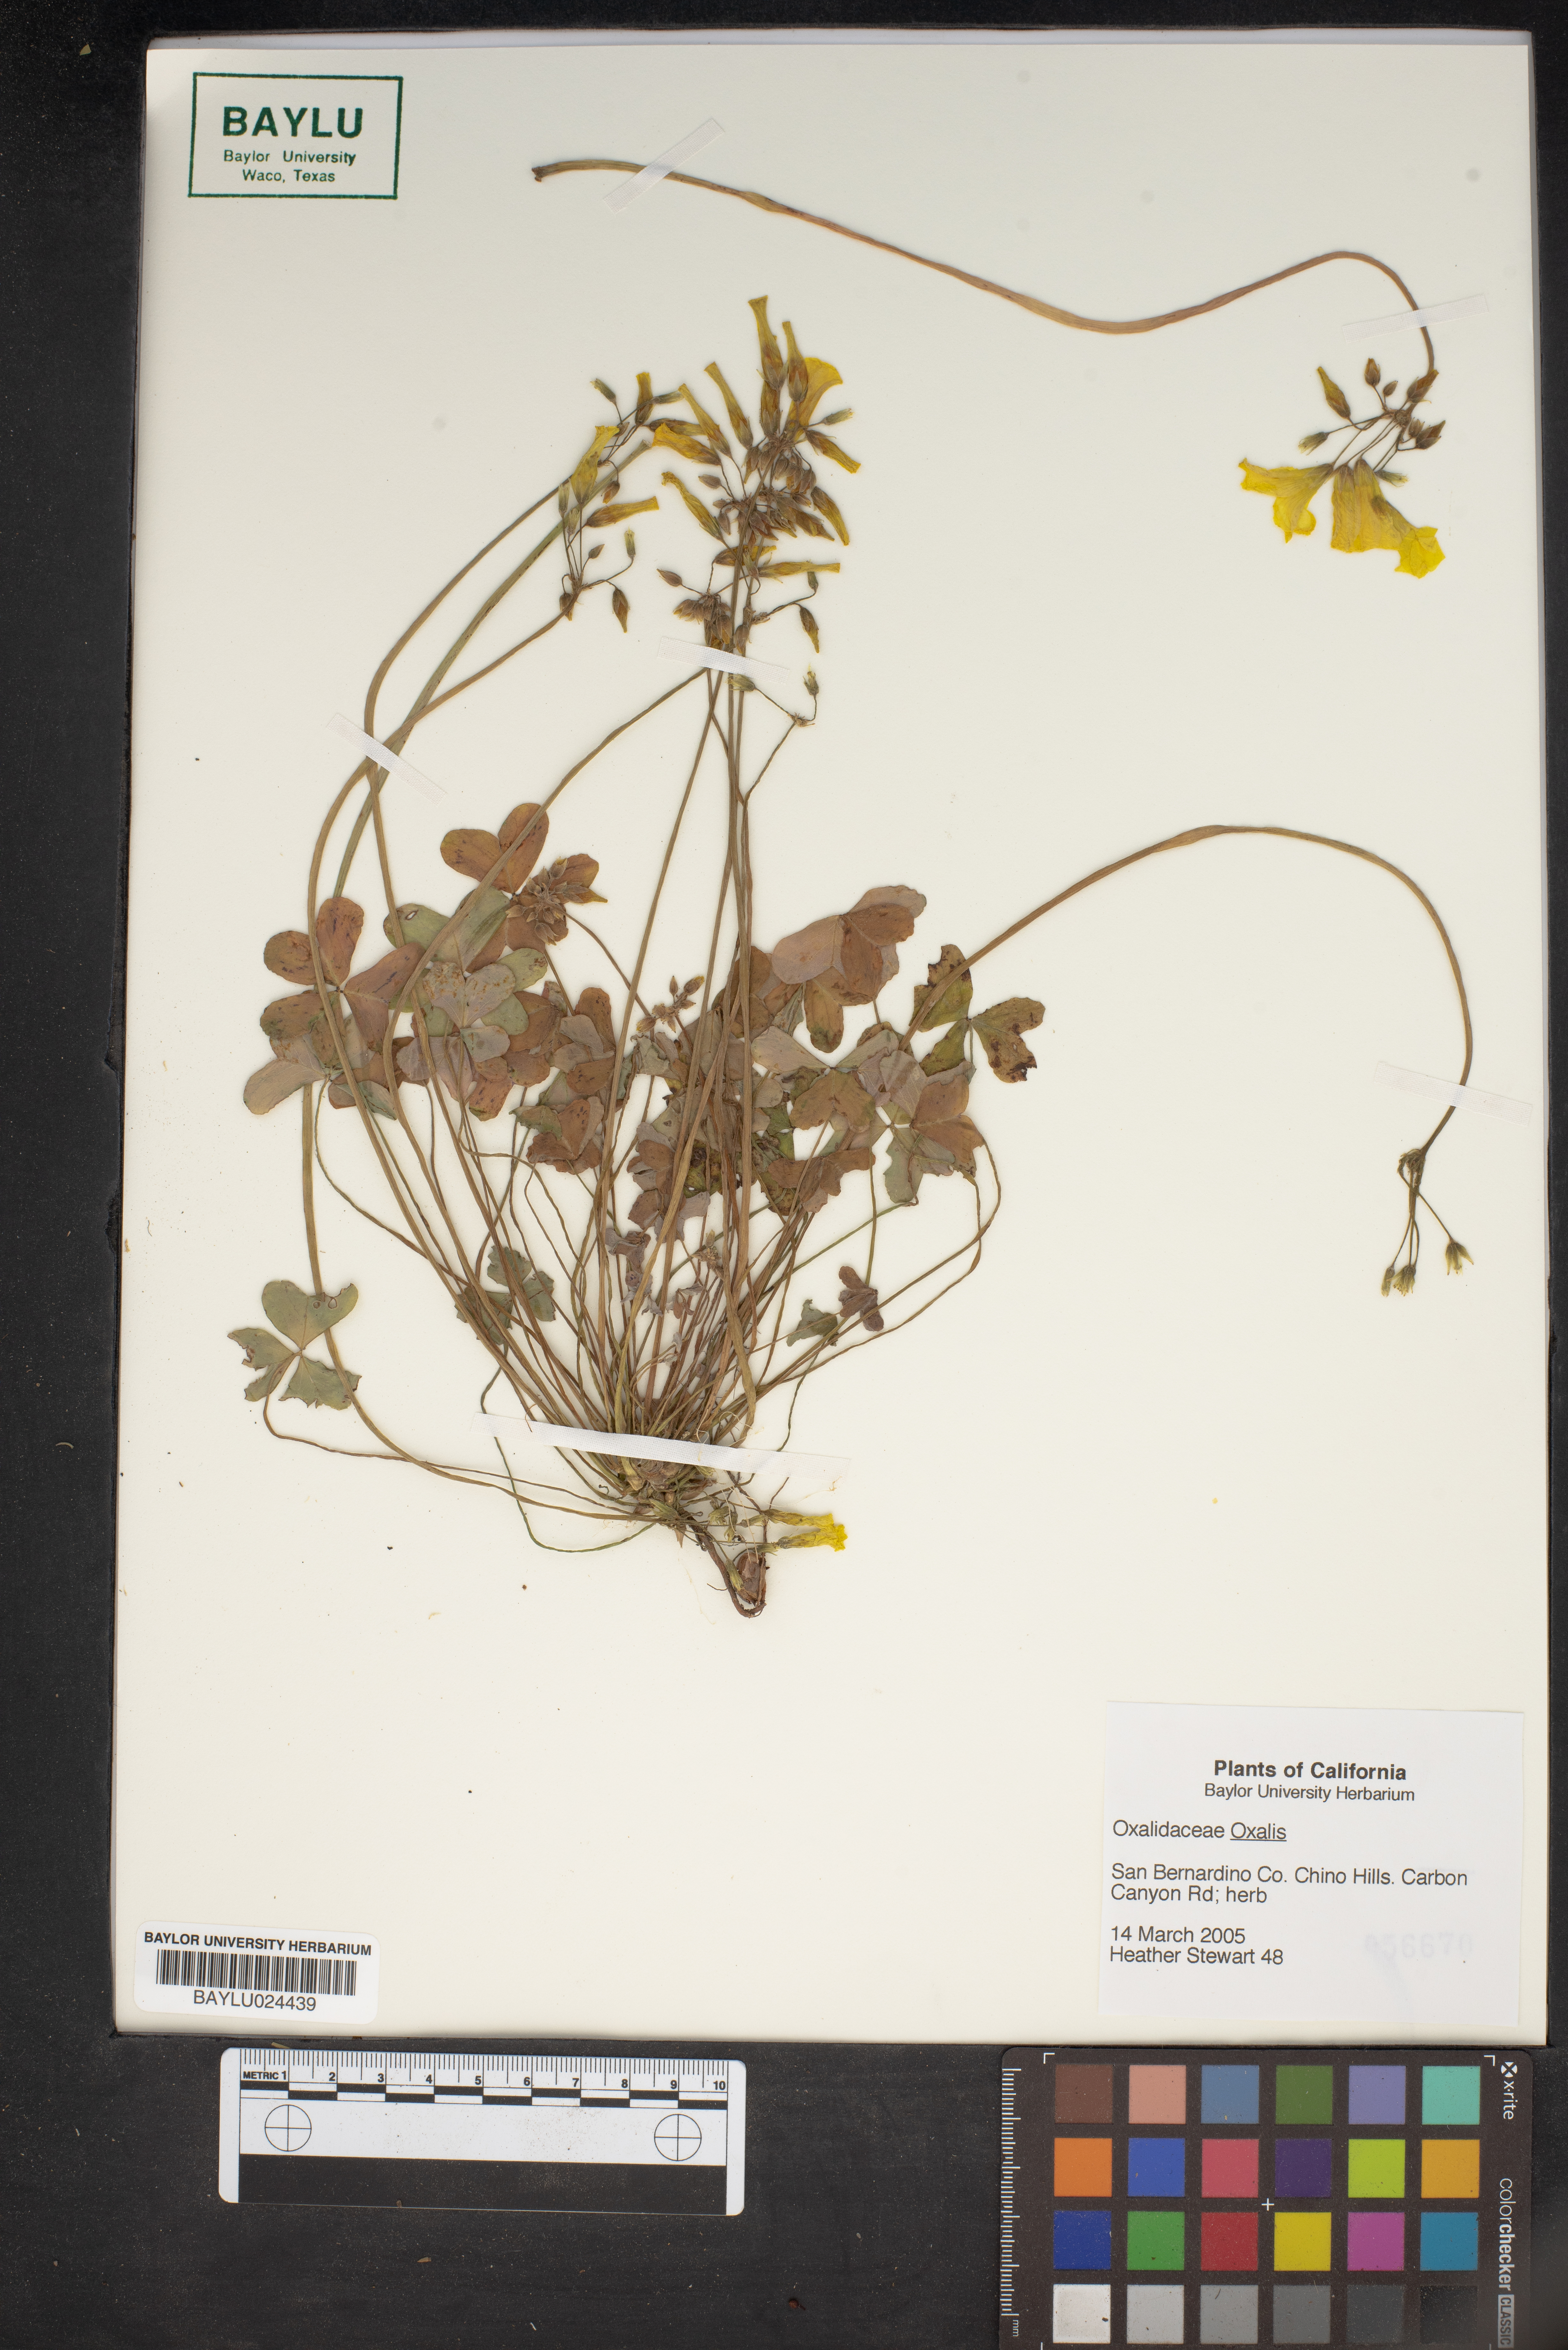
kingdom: Plantae
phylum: Tracheophyta
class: Magnoliopsida
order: Oxalidales
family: Oxalidaceae
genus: Oxalis
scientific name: Oxalis
